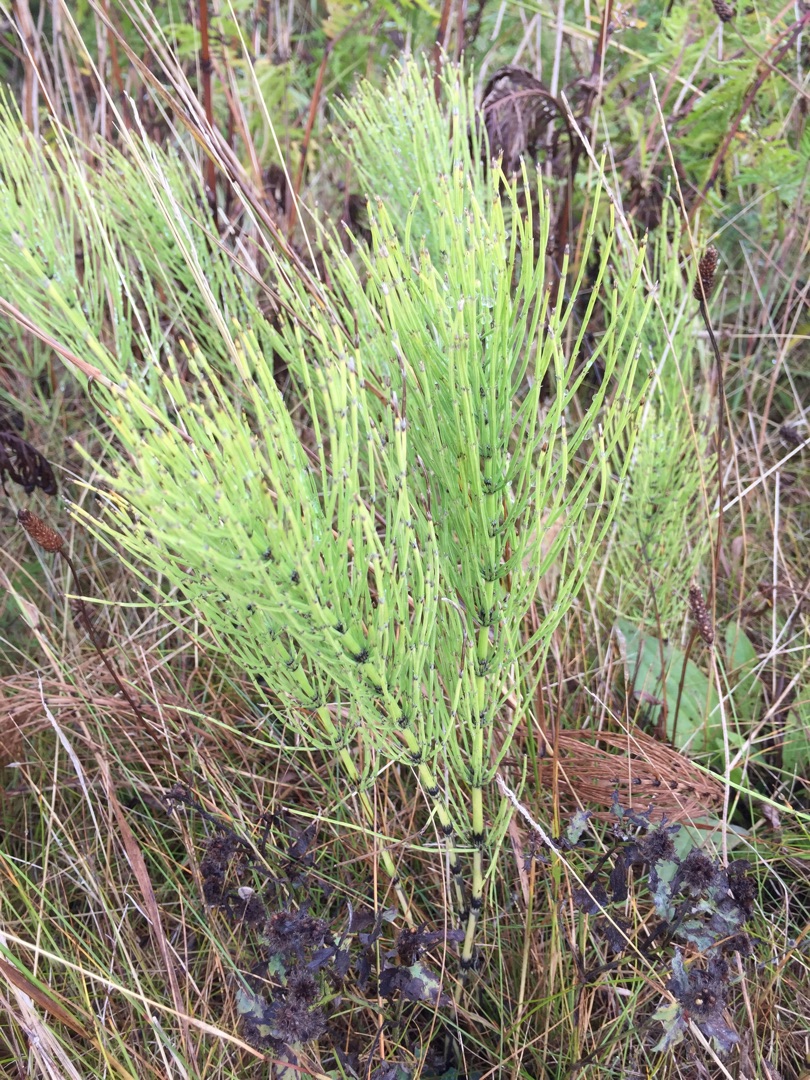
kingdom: Plantae
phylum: Tracheophyta
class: Polypodiopsida
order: Equisetales
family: Equisetaceae
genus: Equisetum
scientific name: Equisetum arvense
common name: Ager-padderok
